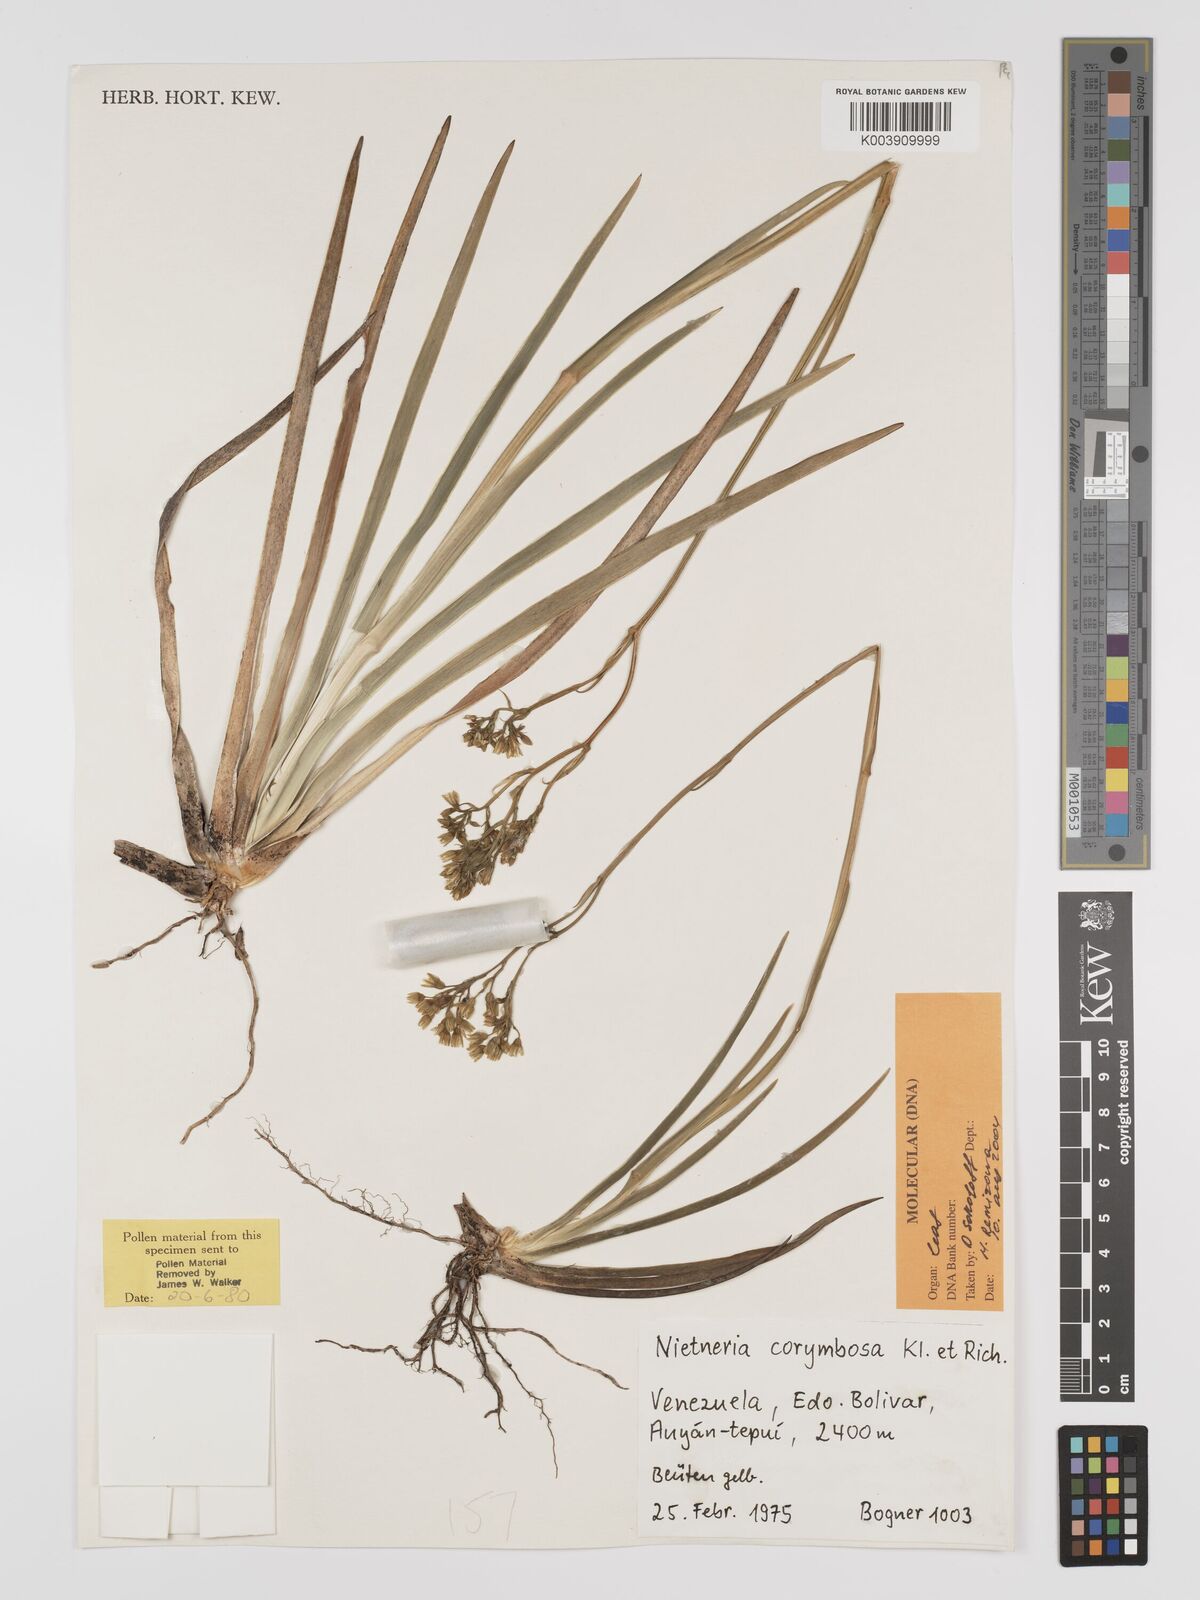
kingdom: Plantae
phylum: Tracheophyta
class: Liliopsida
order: Dioscoreales
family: Nartheciaceae
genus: Nietneria
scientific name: Nietneria corymbosa
